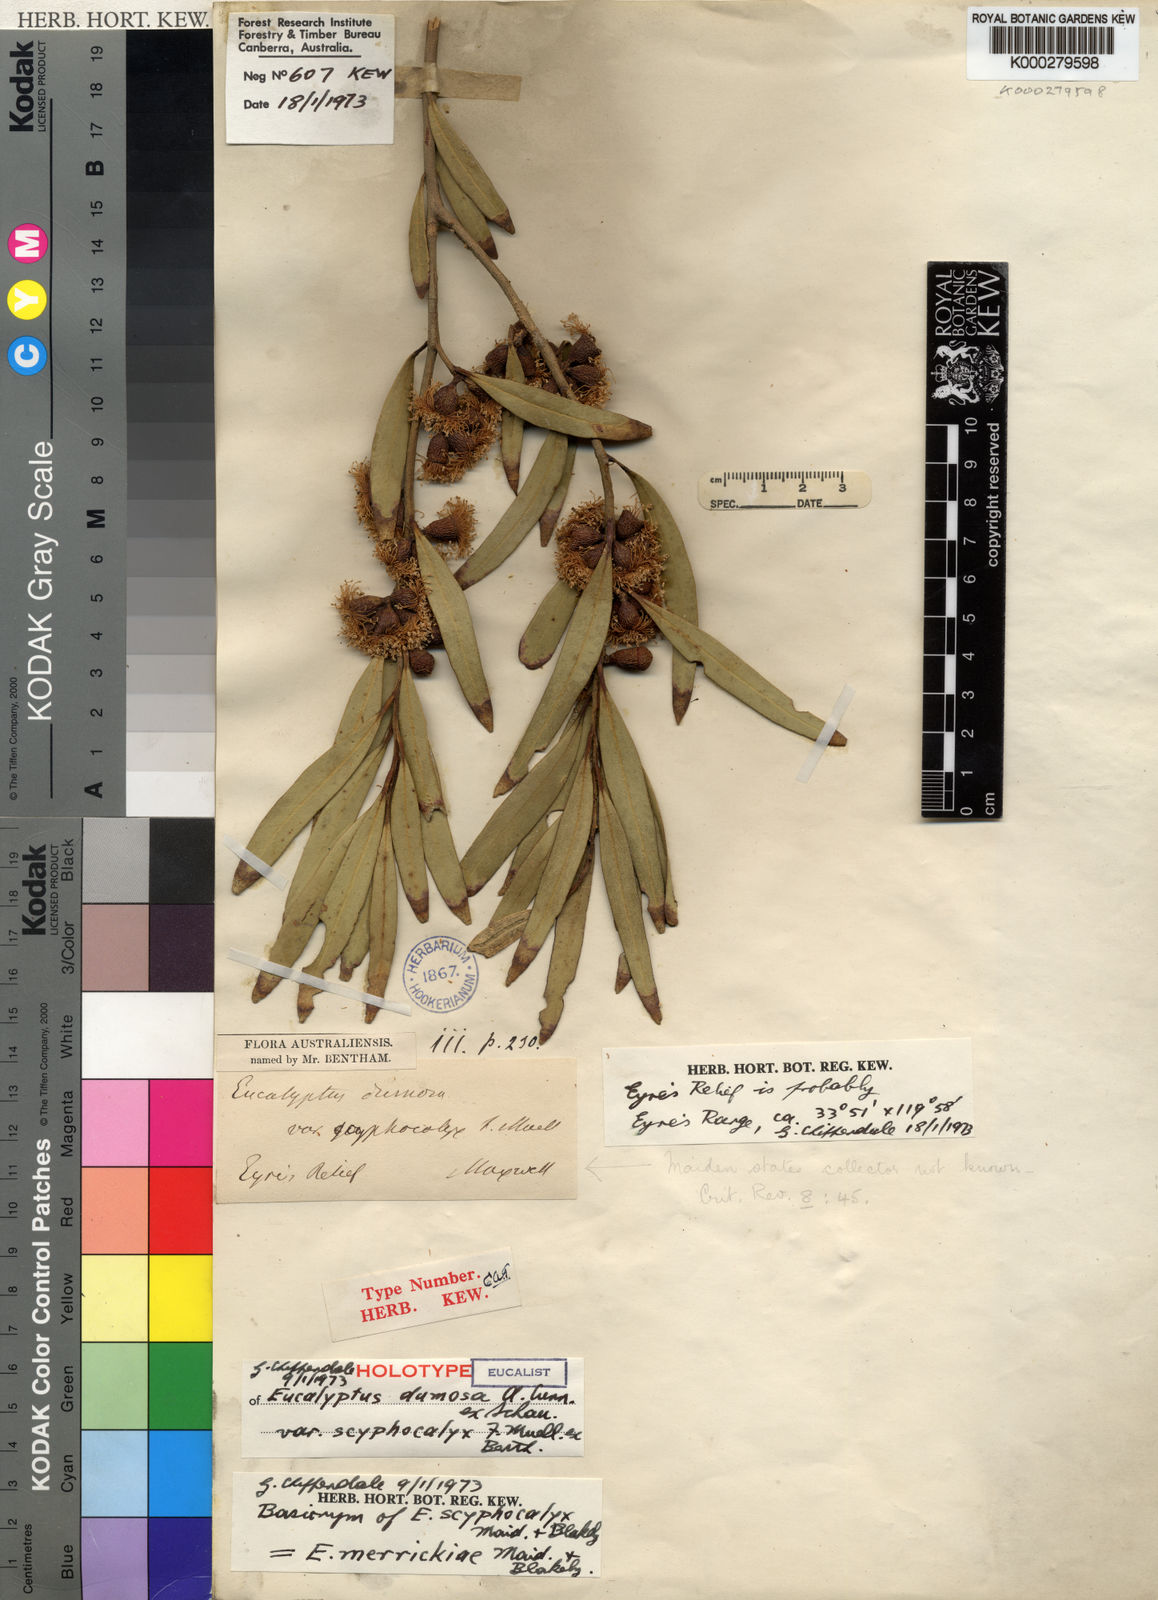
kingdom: Plantae
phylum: Tracheophyta
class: Magnoliopsida
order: Myrtales
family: Myrtaceae
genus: Eucalyptus
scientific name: Eucalyptus scyphocalyx
